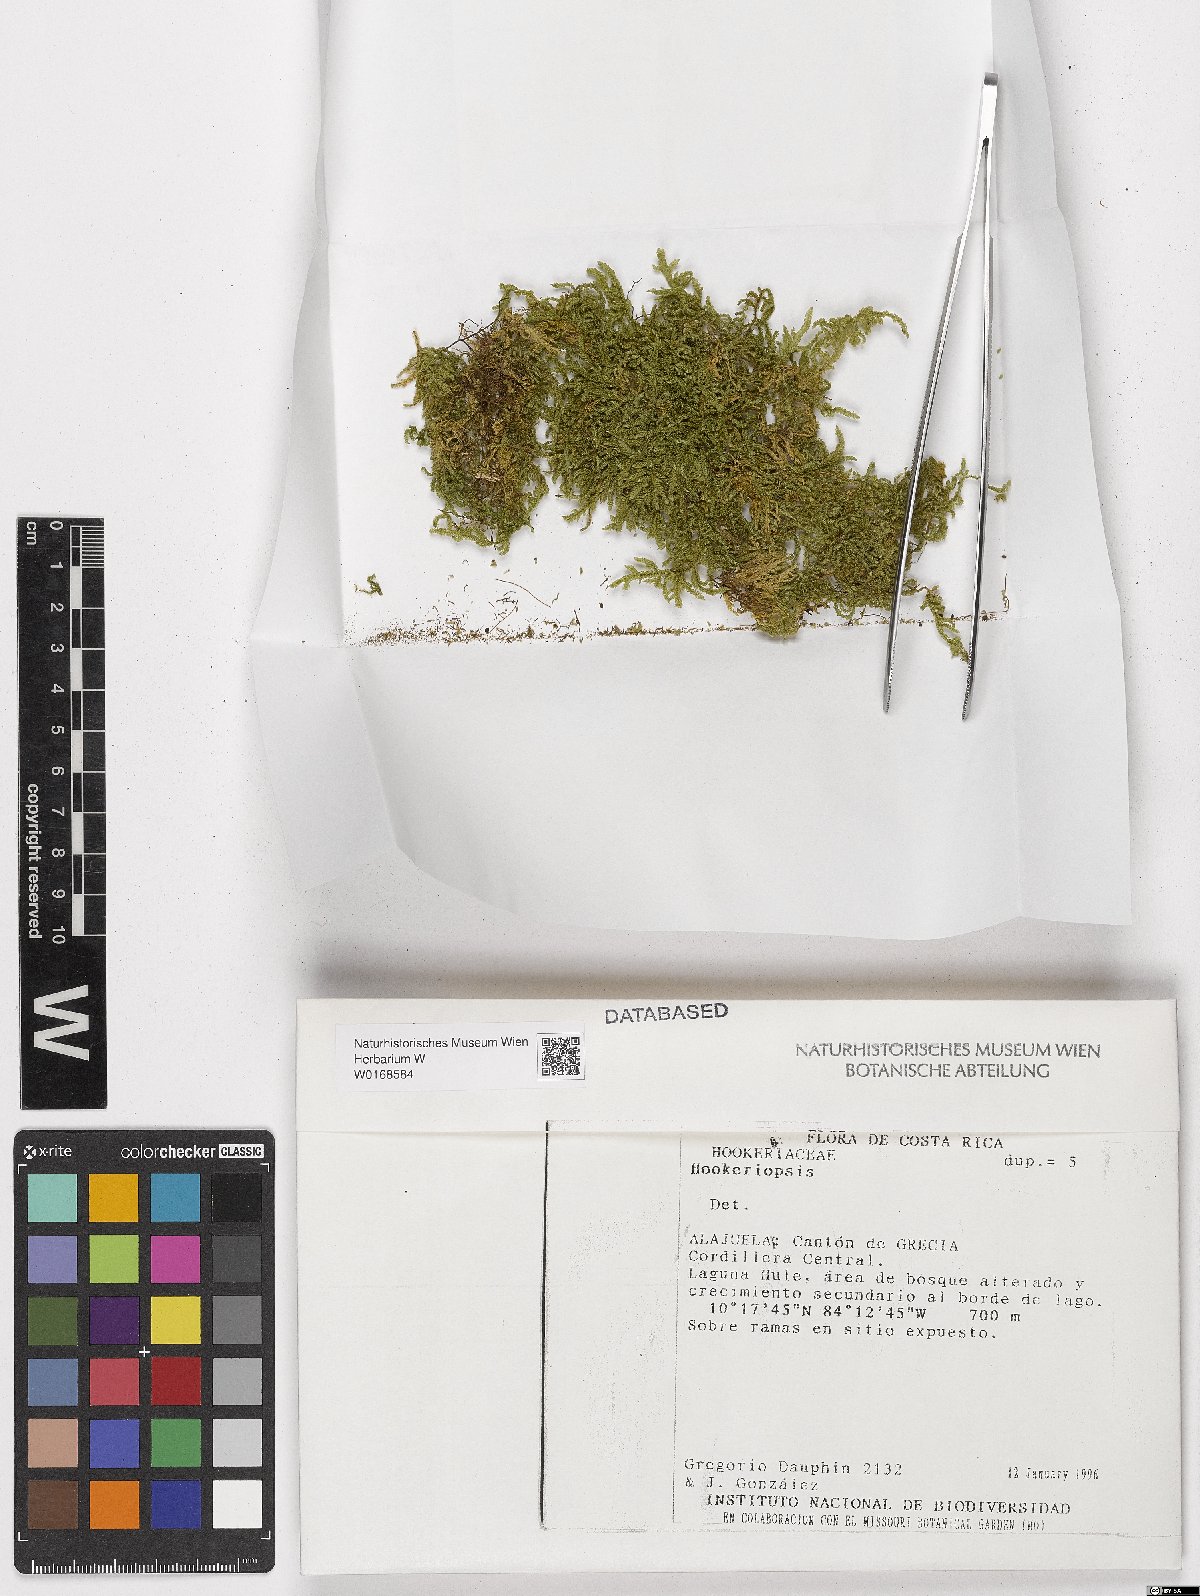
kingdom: Plantae
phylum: Bryophyta
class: Bryopsida
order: Hookeriales
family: Pilotrichaceae
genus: Hookeriopsis
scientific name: Hookeriopsis
